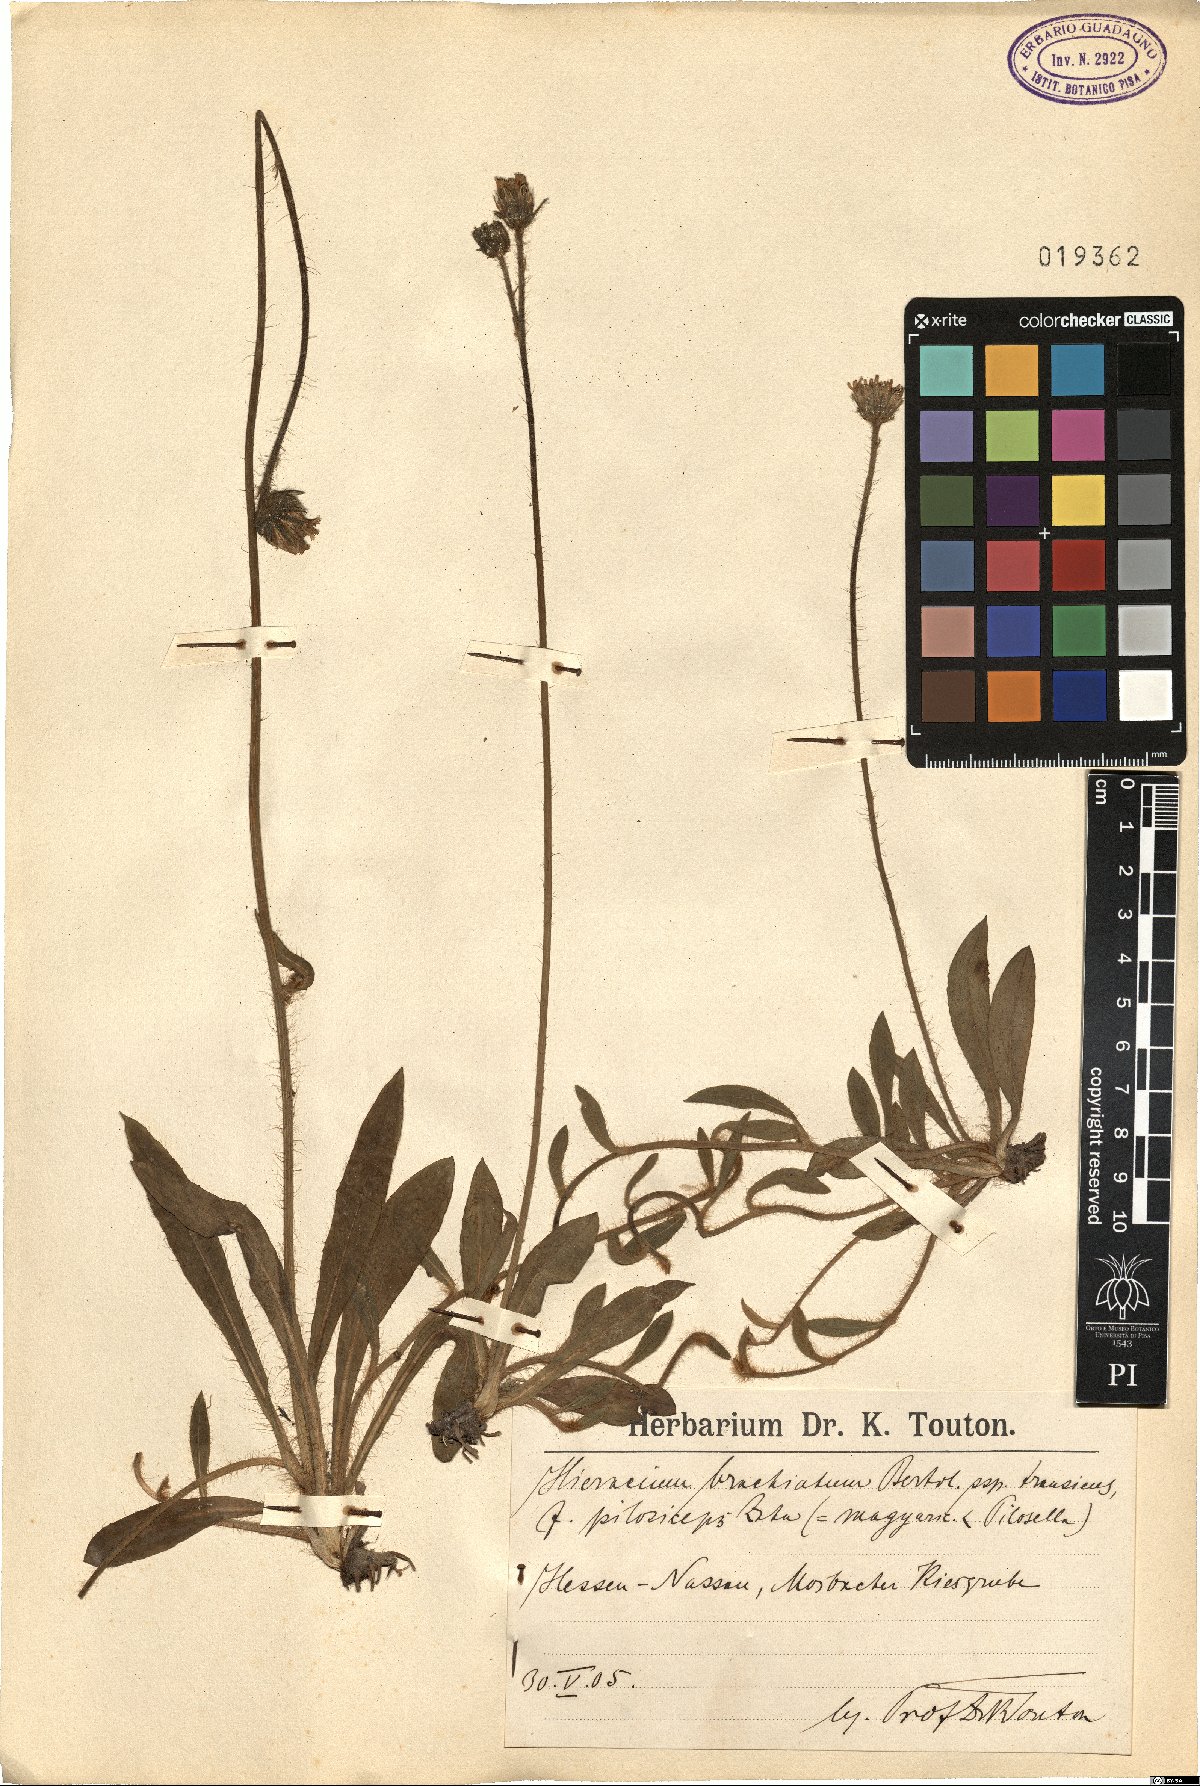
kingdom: Plantae
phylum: Tracheophyta
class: Magnoliopsida
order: Asterales
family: Asteraceae
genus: Pilosella
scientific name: Pilosella acutifolia
